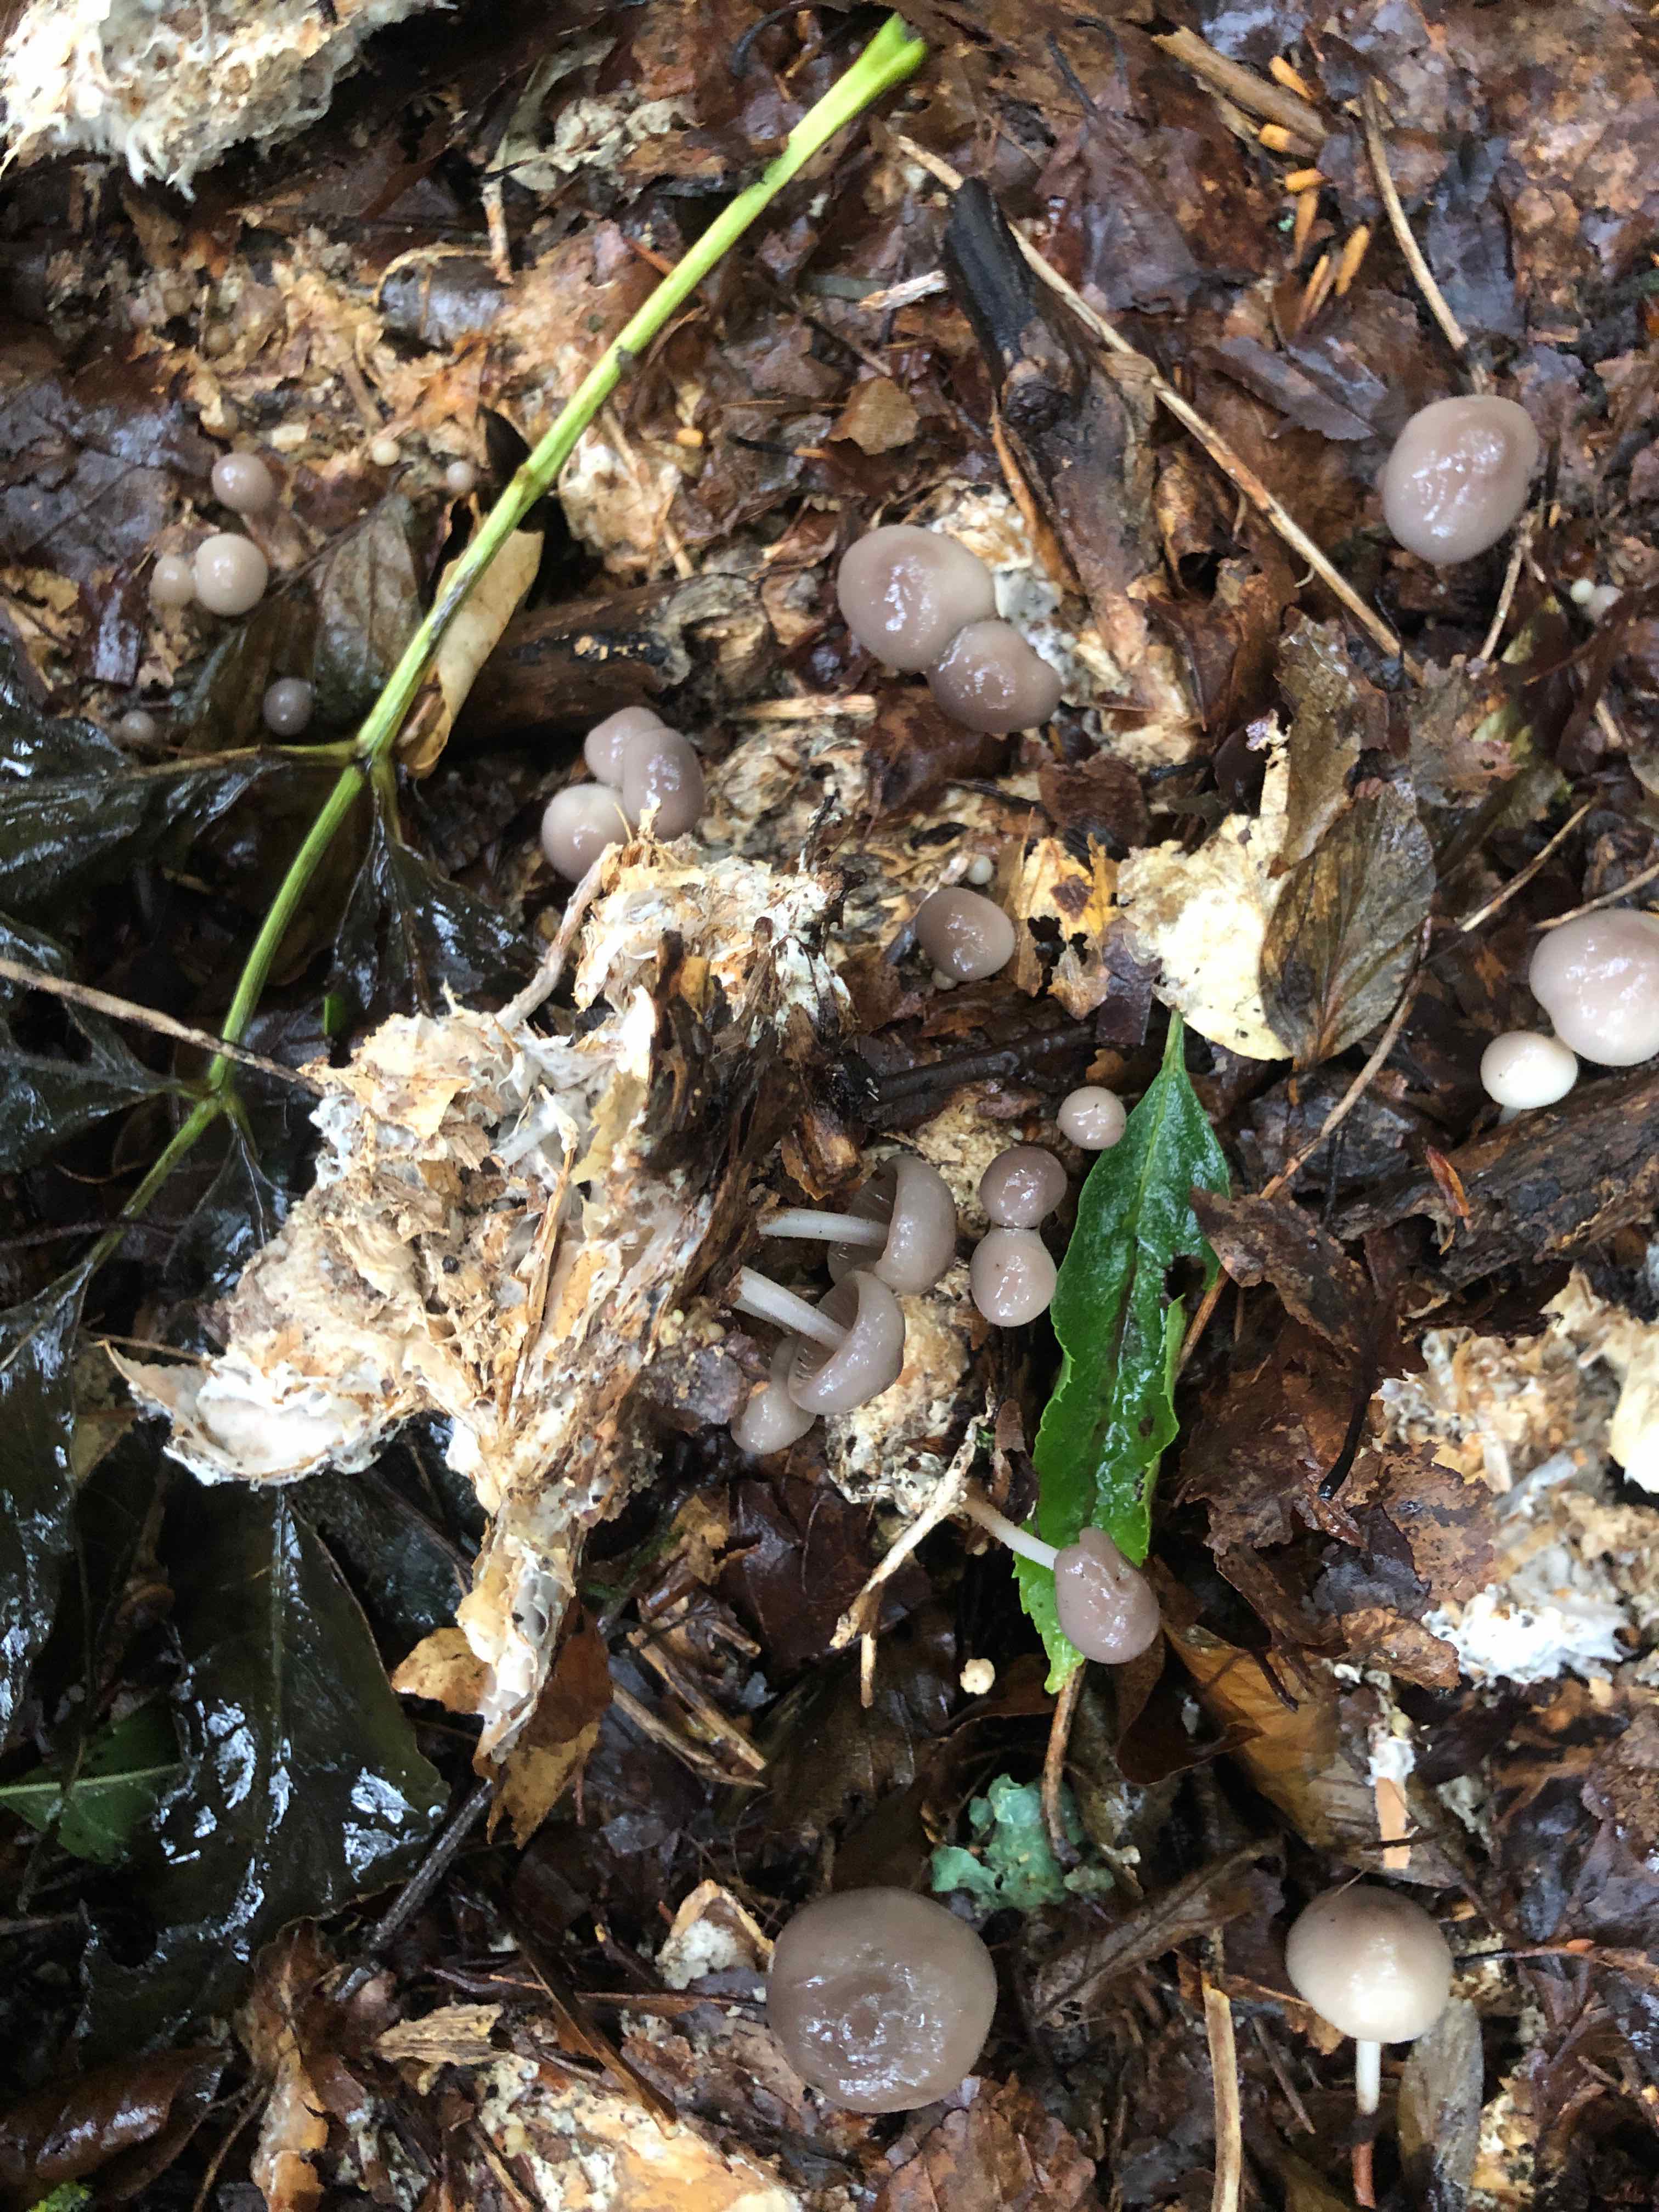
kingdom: Fungi
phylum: Basidiomycota
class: Agaricomycetes
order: Agaricales
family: Marasmiaceae
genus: Marasmius
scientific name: Marasmius wynneae
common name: hvælvet bruskhat
